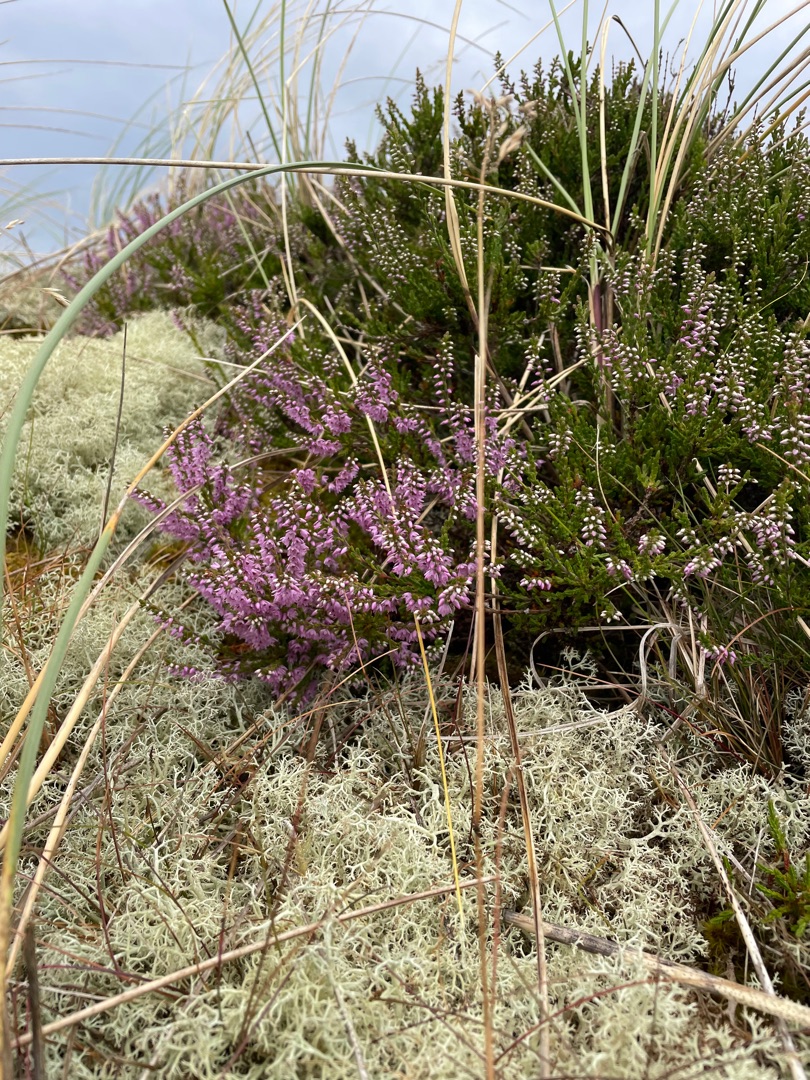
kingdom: Plantae
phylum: Tracheophyta
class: Magnoliopsida
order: Ericales
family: Ericaceae
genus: Calluna
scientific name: Calluna vulgaris
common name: Hedelyng
